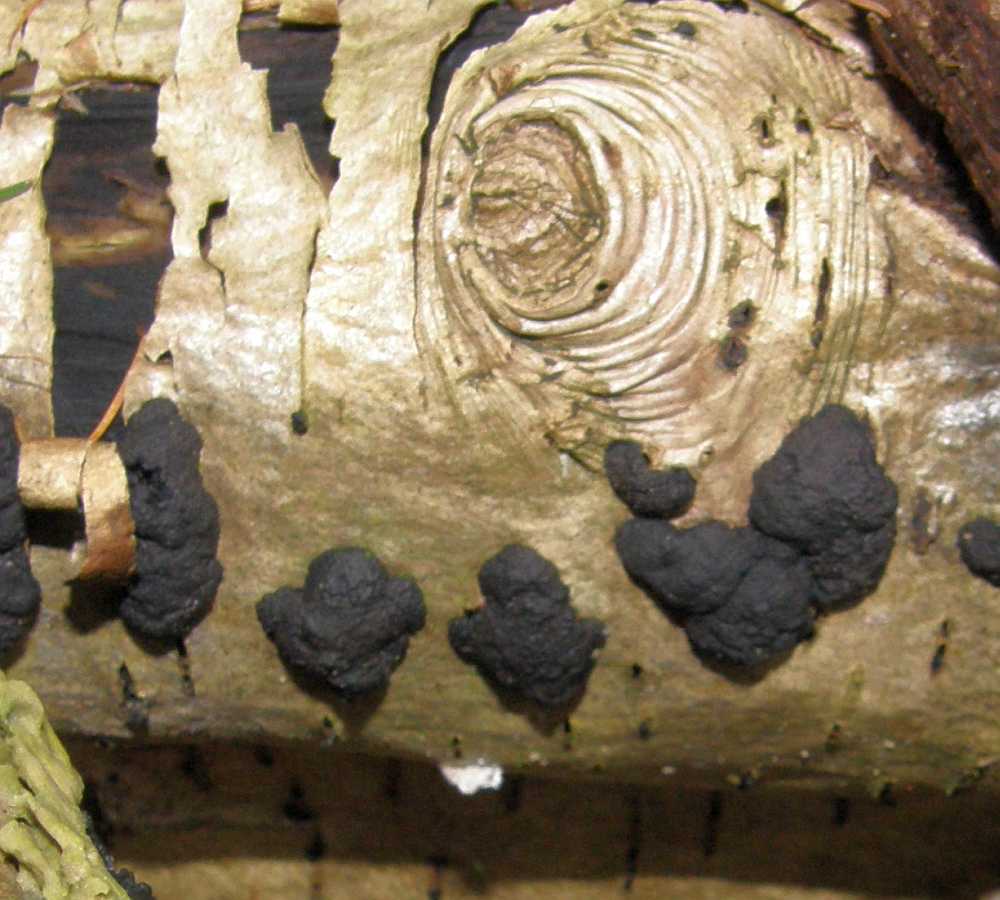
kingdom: Fungi
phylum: Ascomycota
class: Sordariomycetes
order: Xylariales
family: Hypoxylaceae
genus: Jackrogersella
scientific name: Jackrogersella multiformis
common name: foranderlig kulbær
